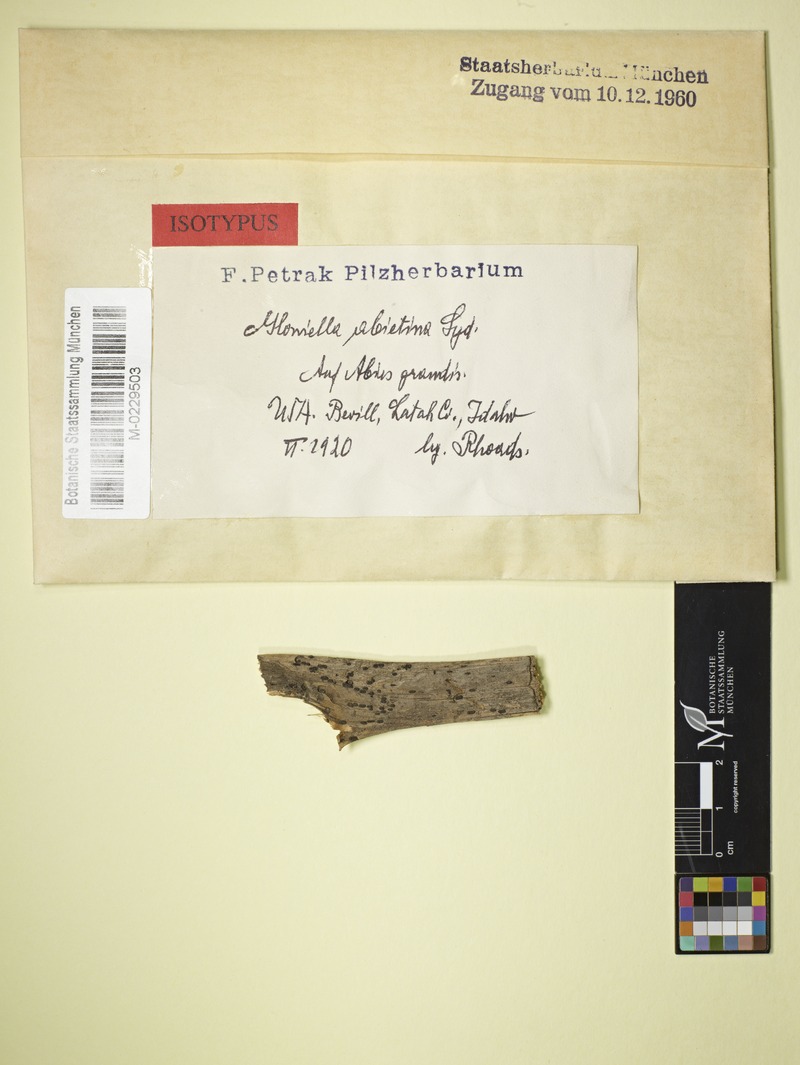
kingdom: Fungi
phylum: Ascomycota
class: Dothideomycetes
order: Hysteriales
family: Hysteriaceae
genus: Gloniella
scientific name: Gloniella abietina
